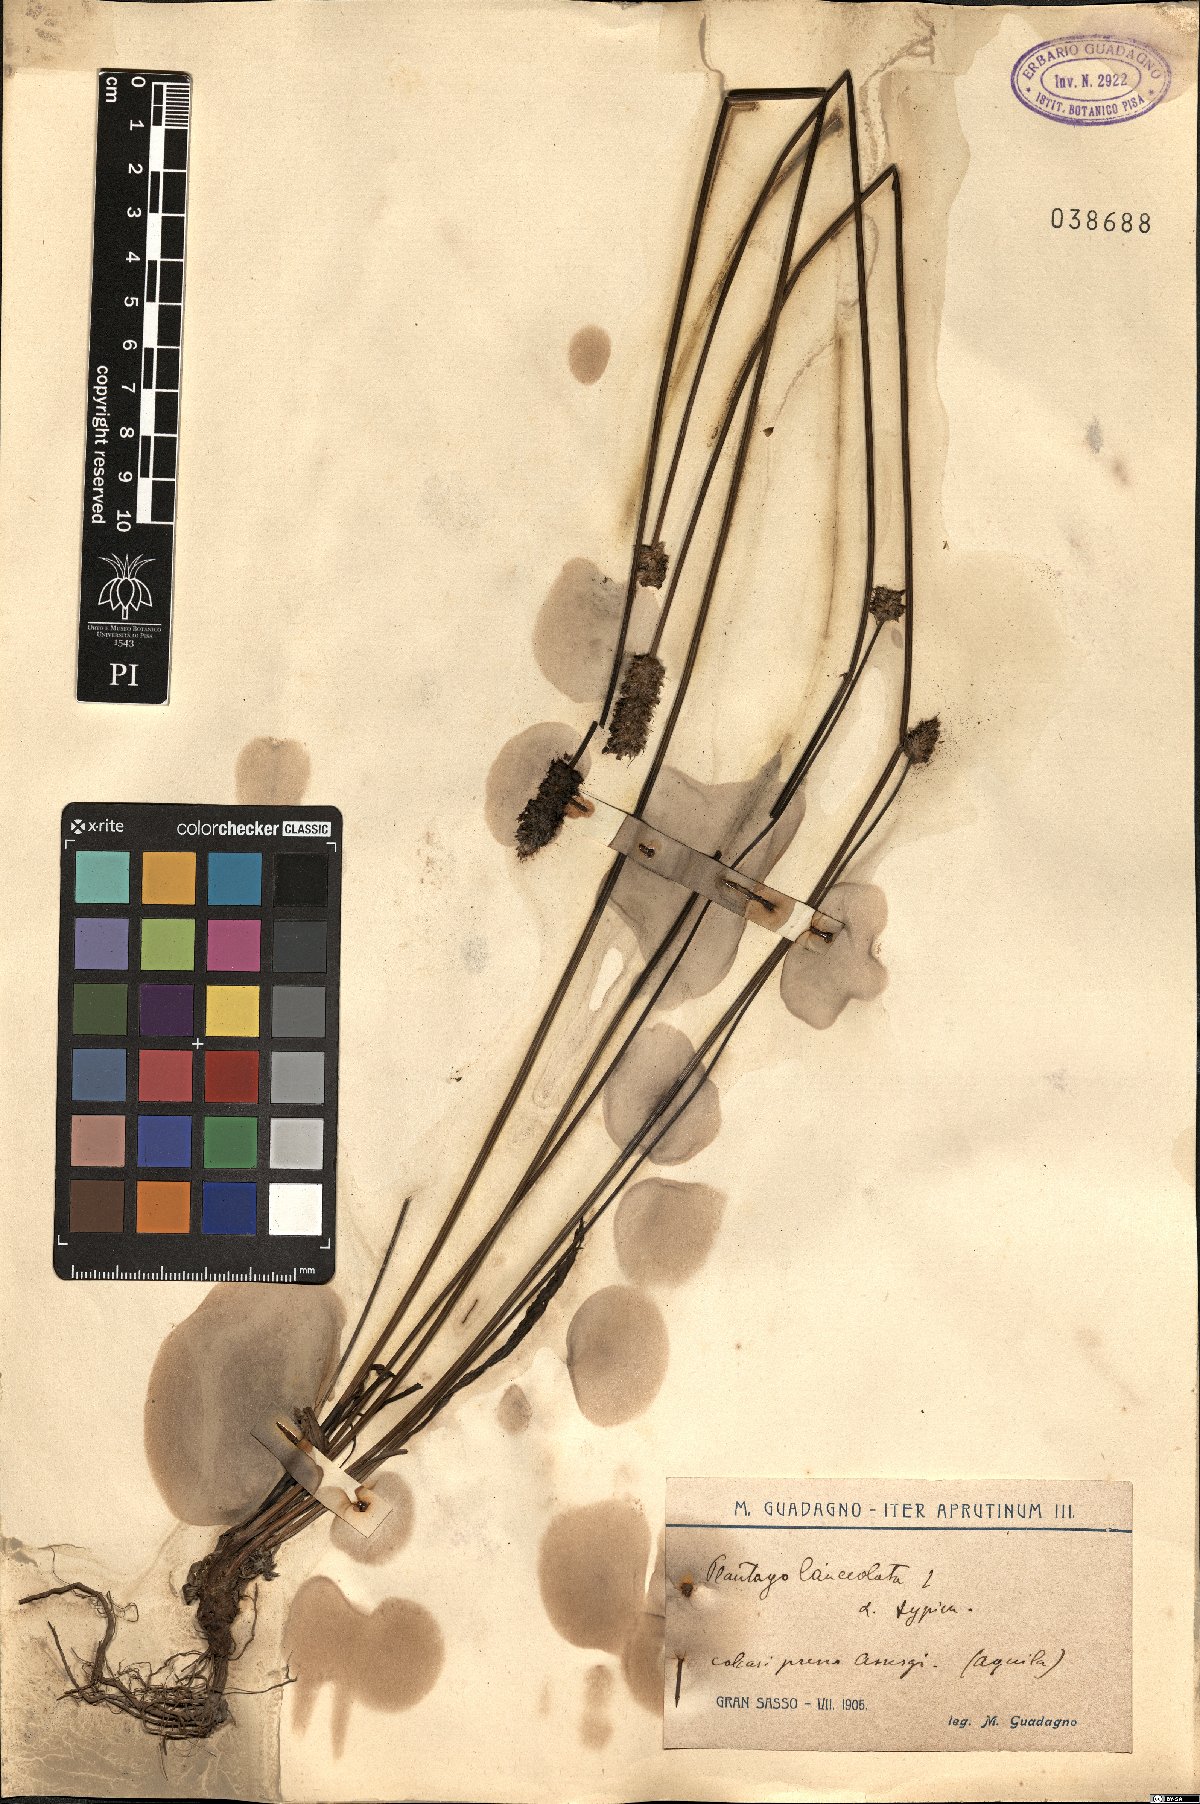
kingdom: Plantae
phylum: Tracheophyta
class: Magnoliopsida
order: Lamiales
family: Plantaginaceae
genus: Plantago
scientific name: Plantago lanceolata
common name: Ribwort plantain
